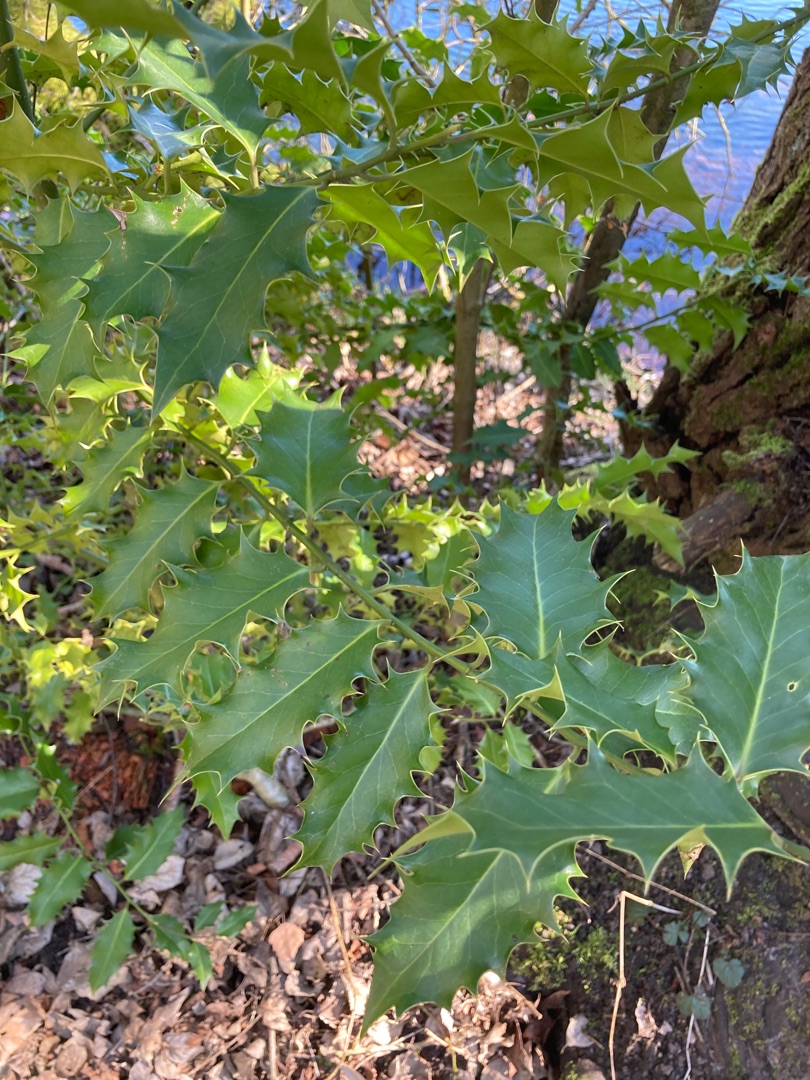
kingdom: Plantae
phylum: Tracheophyta
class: Magnoliopsida
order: Aquifoliales
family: Aquifoliaceae
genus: Ilex
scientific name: Ilex aquifolium
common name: Kristtorn
